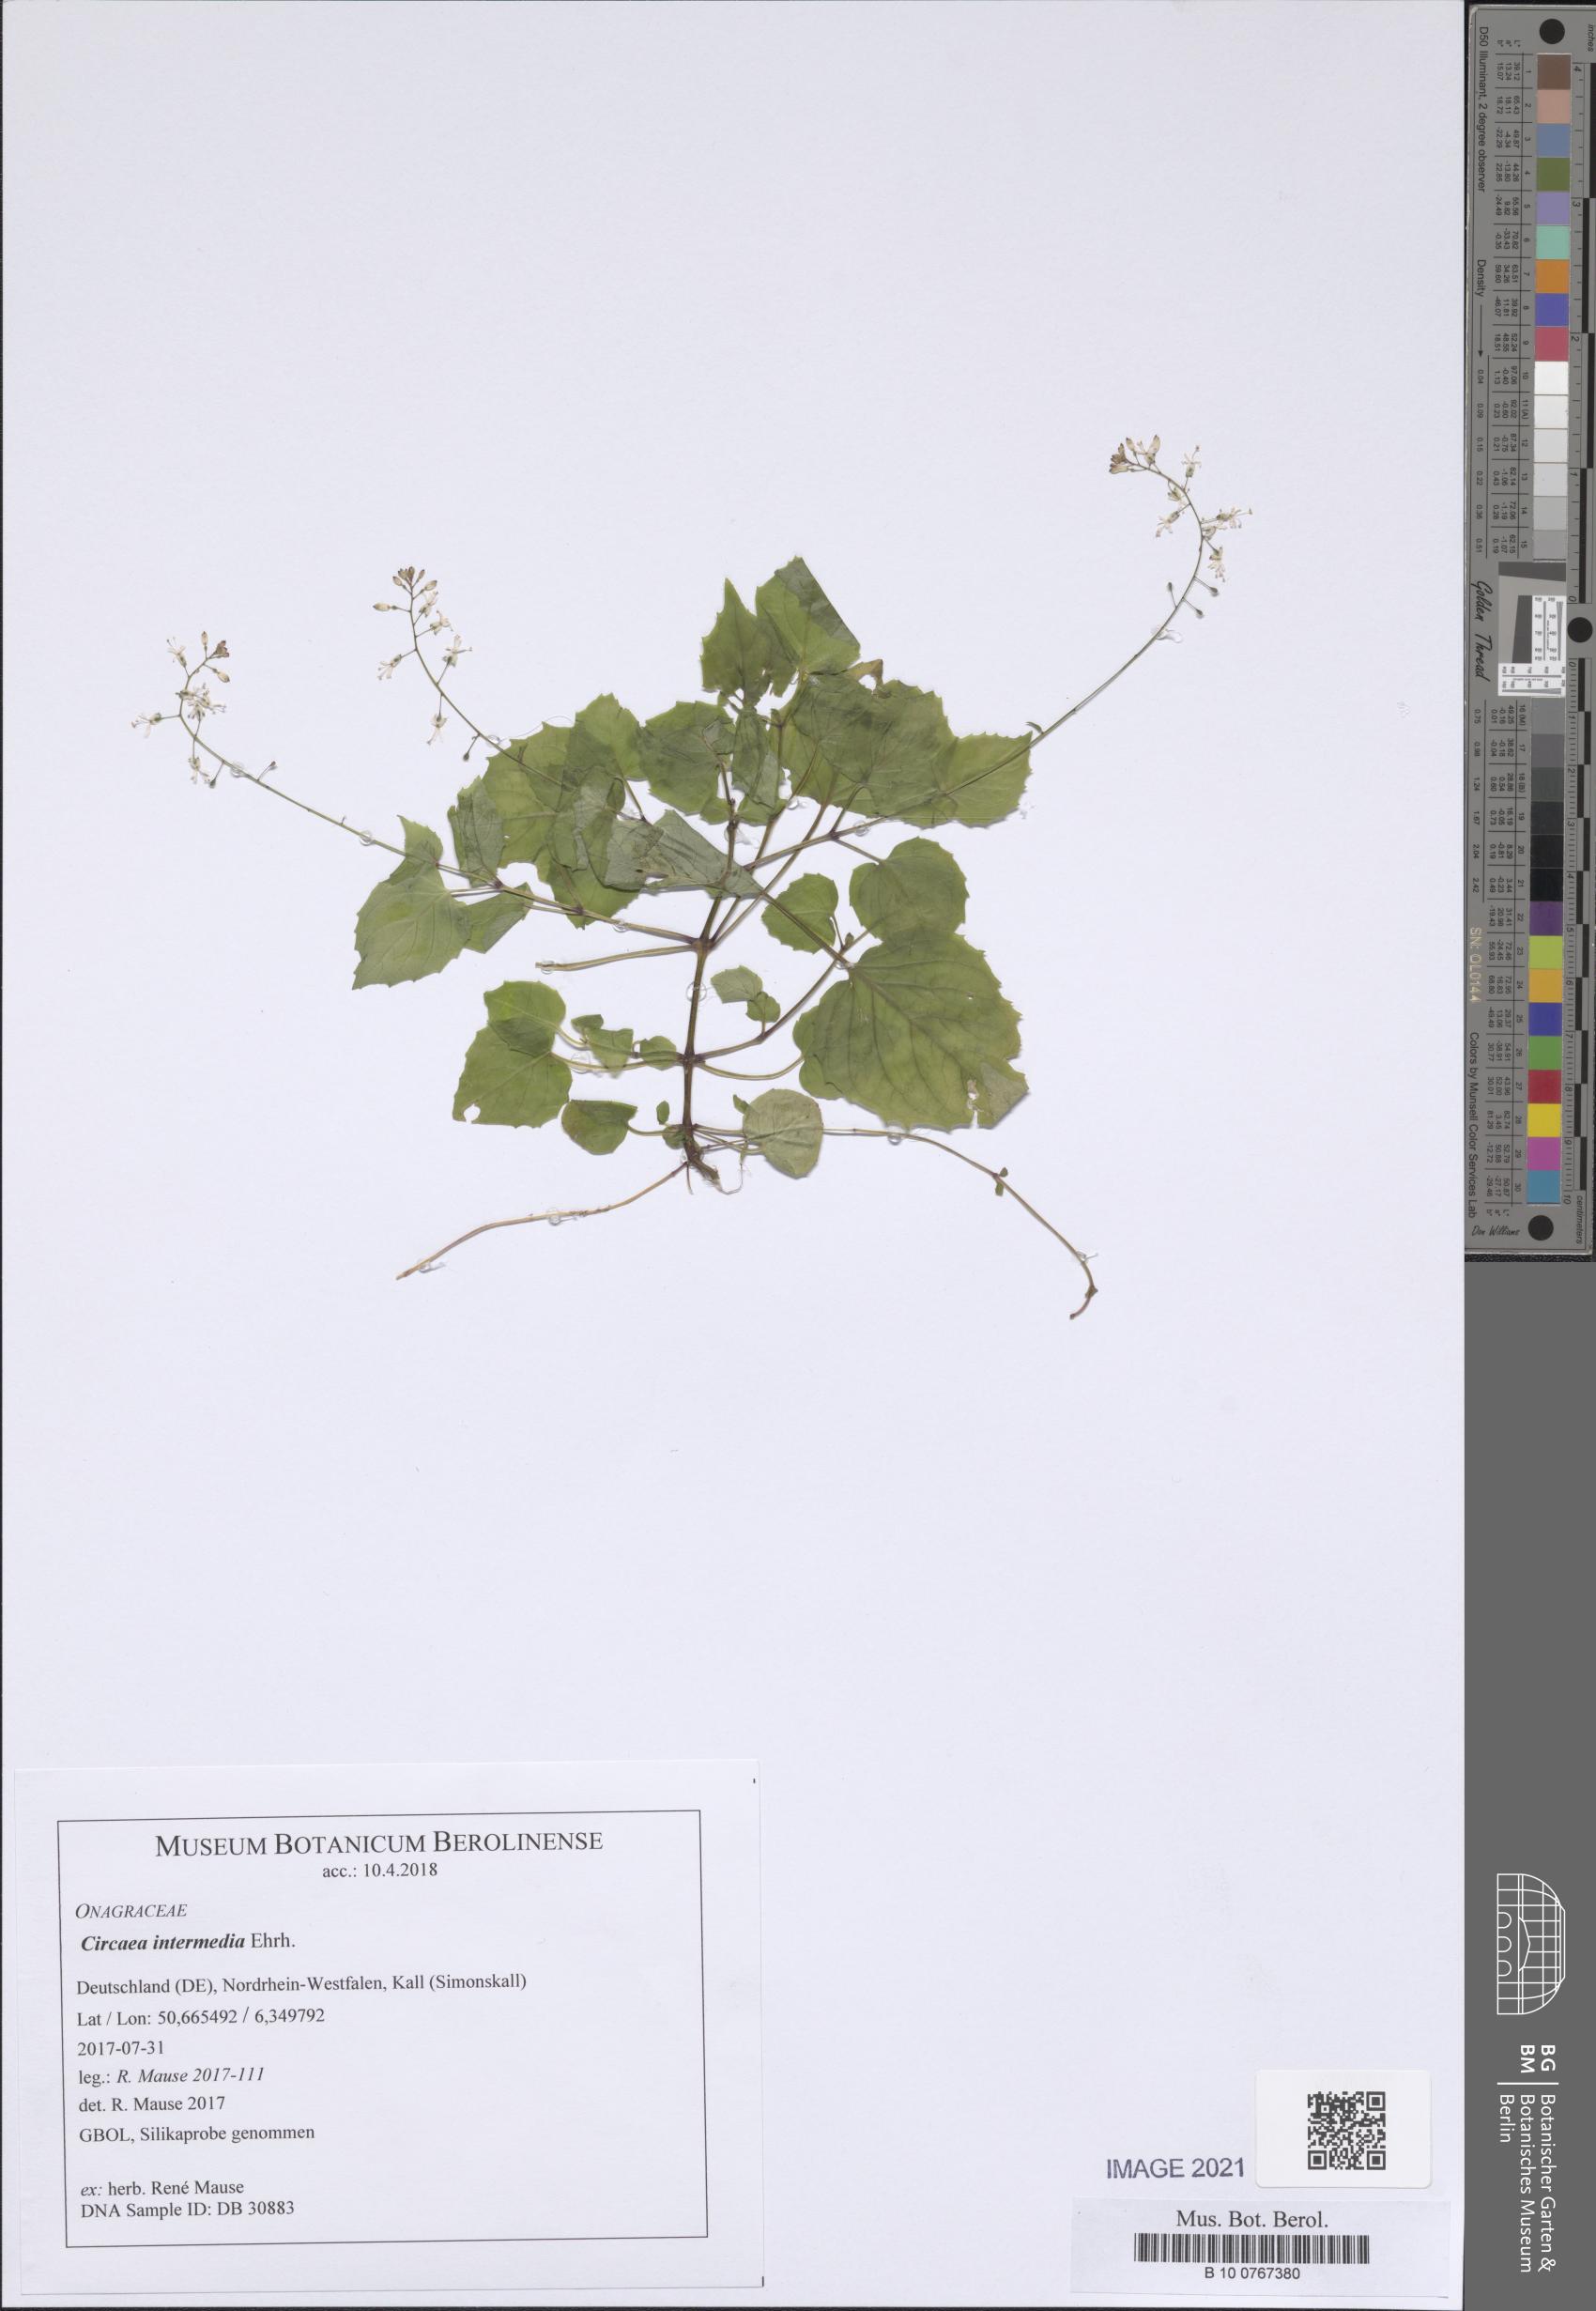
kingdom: Plantae
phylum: Tracheophyta
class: Magnoliopsida
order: Myrtales
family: Onagraceae
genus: Circaea
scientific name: Circaea intermedia
